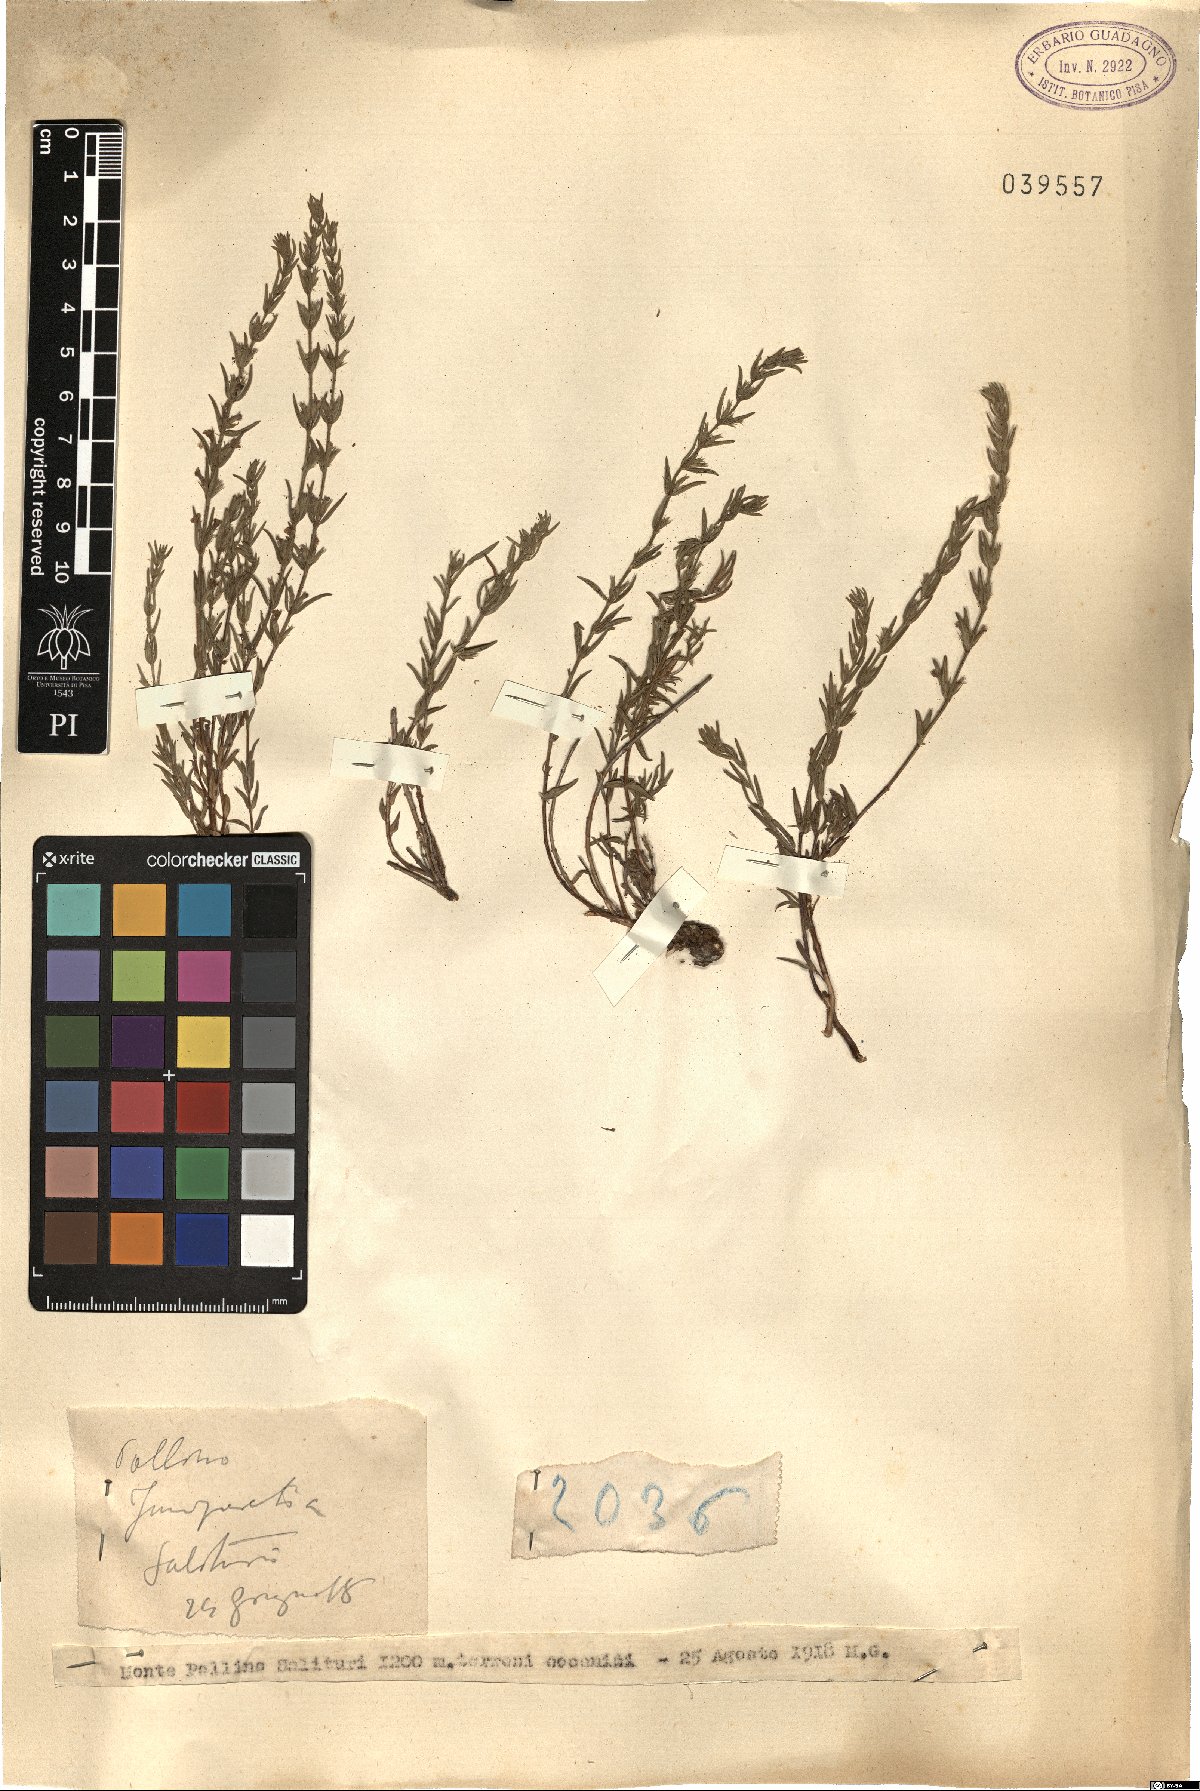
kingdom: Plantae
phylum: Tracheophyta
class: Magnoliopsida
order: Lamiales
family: Lamiaceae
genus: Micromeria
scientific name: Micromeria
